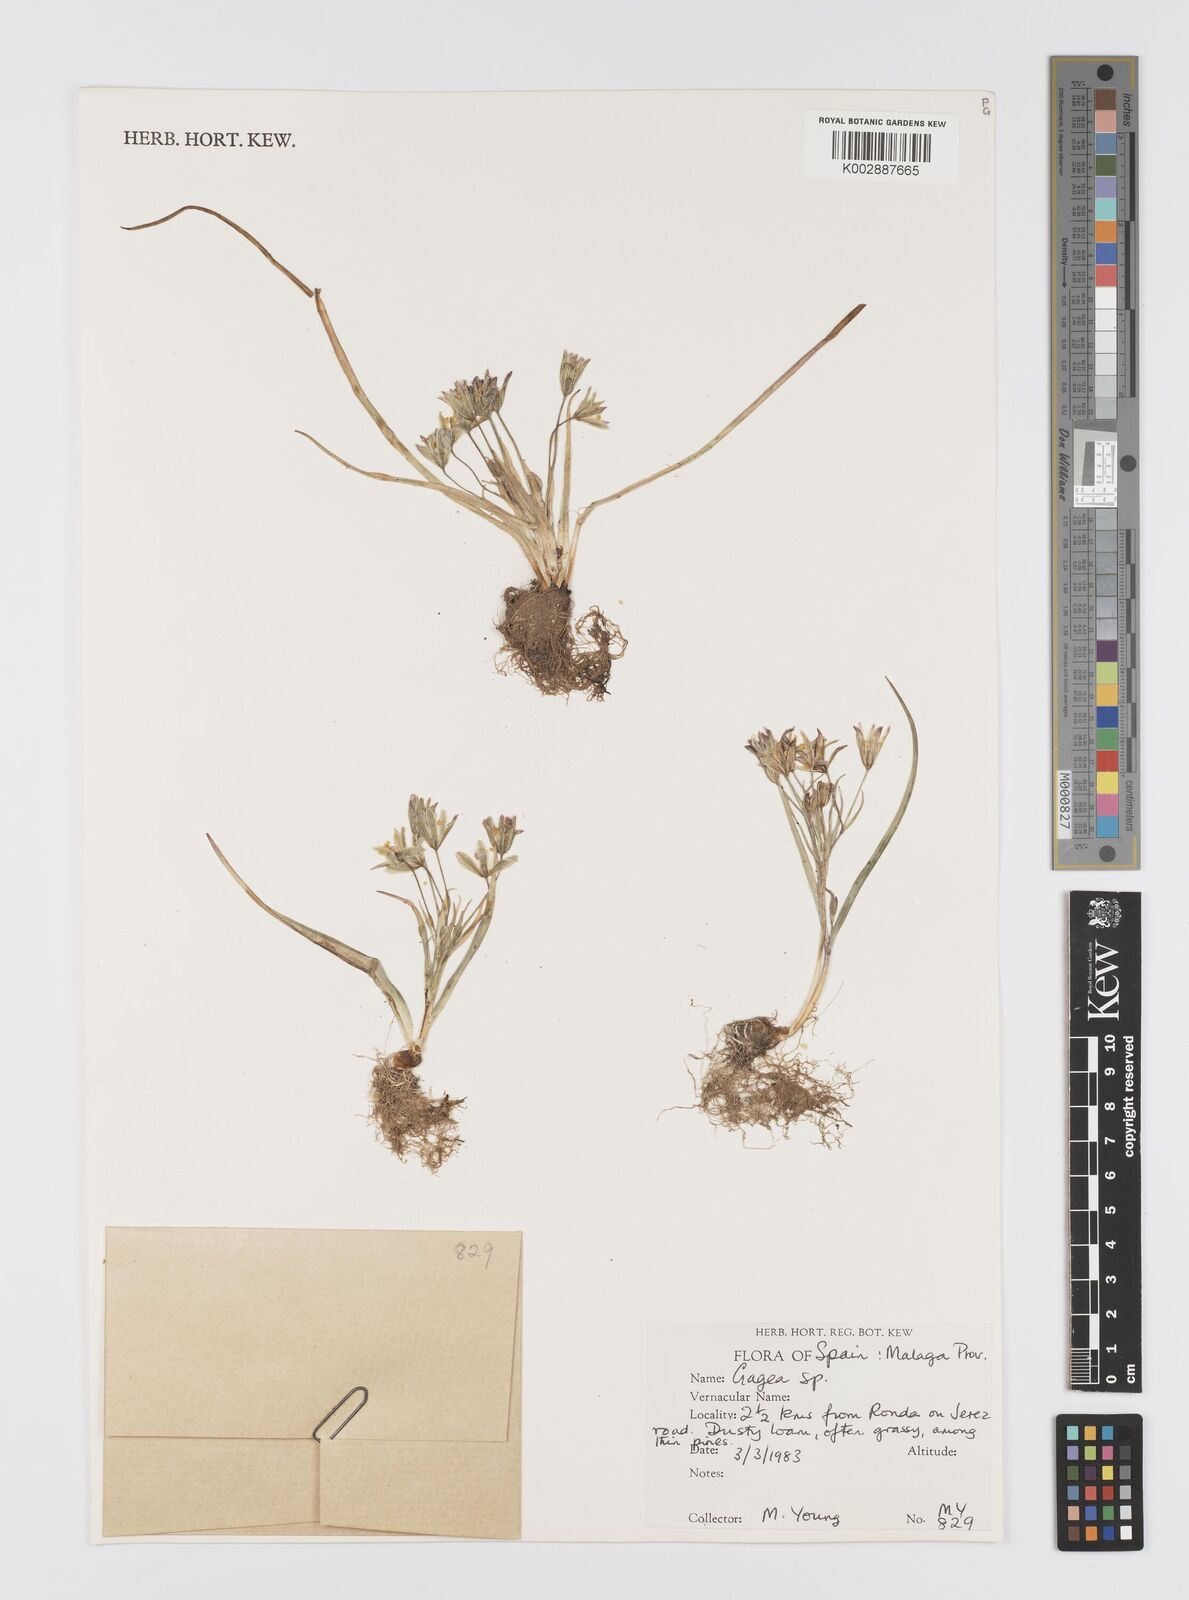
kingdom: Plantae
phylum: Tracheophyta
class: Liliopsida
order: Liliales
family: Liliaceae
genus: Gagea
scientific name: Gagea
